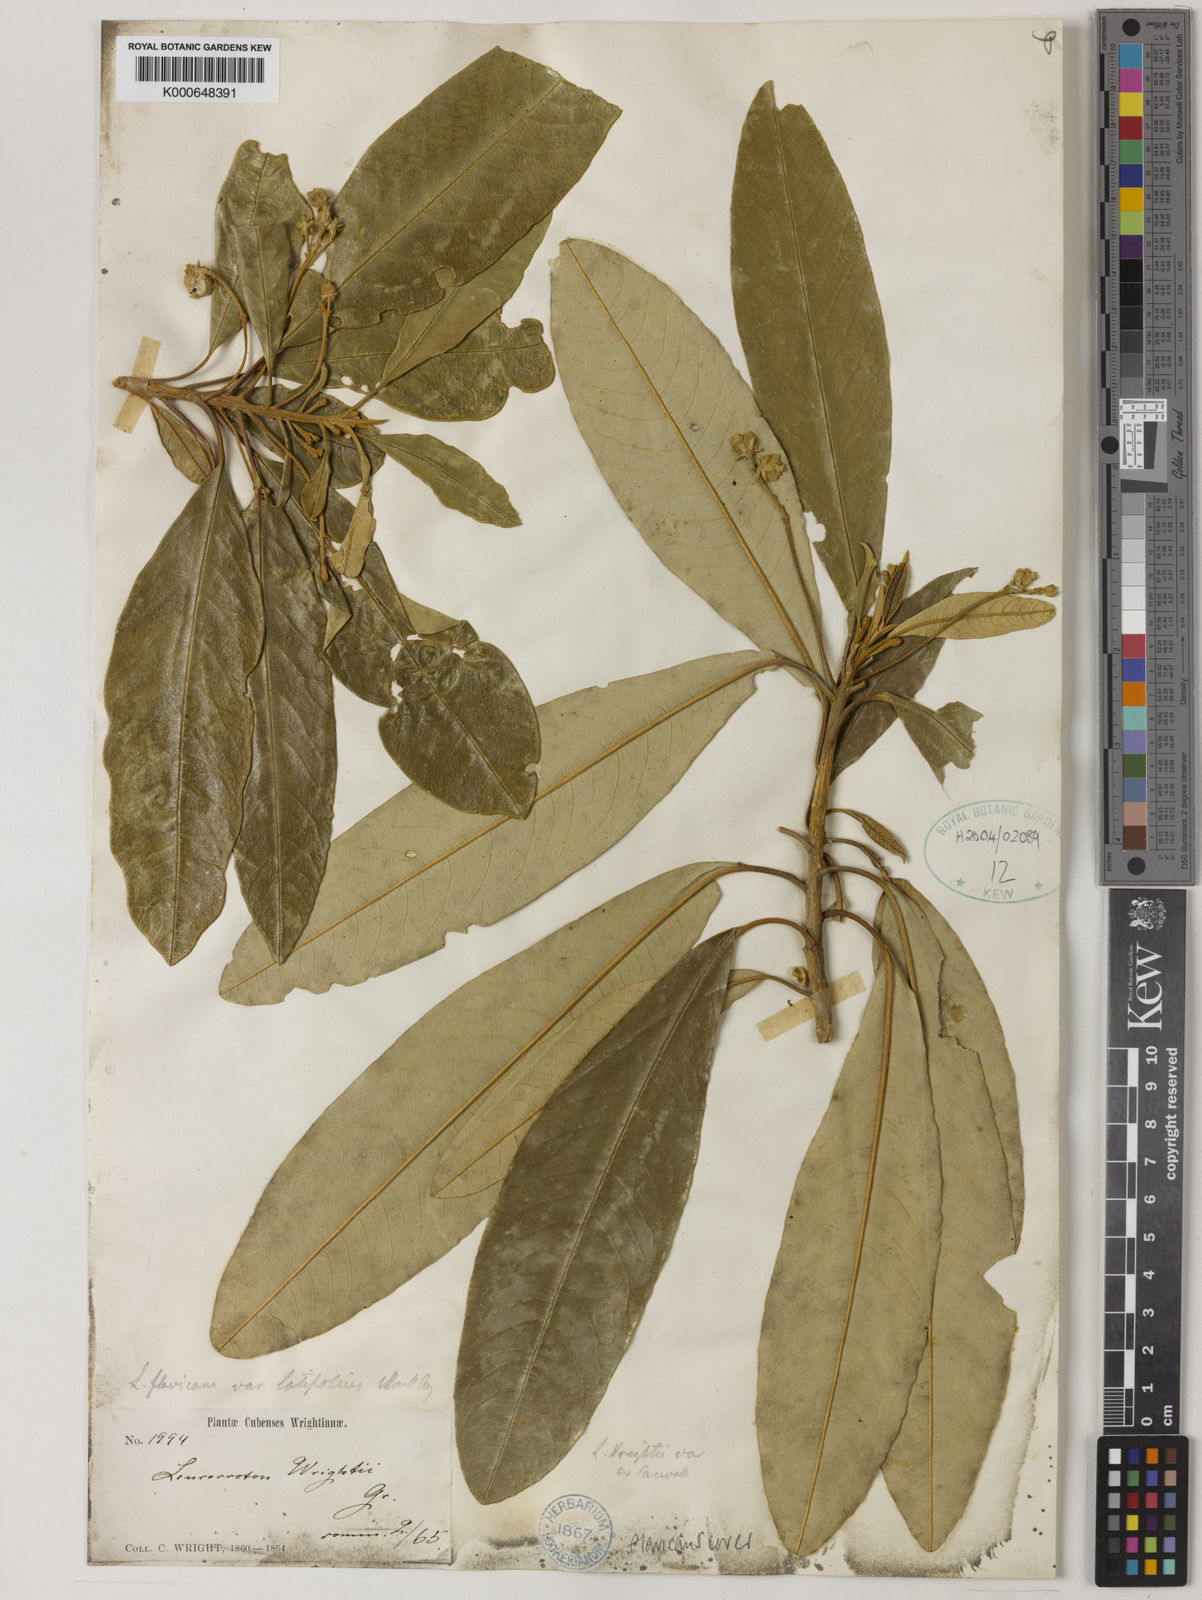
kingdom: Plantae
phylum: Tracheophyta
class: Magnoliopsida
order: Malpighiales
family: Euphorbiaceae
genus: Leucocroton
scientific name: Leucocroton wrightii
